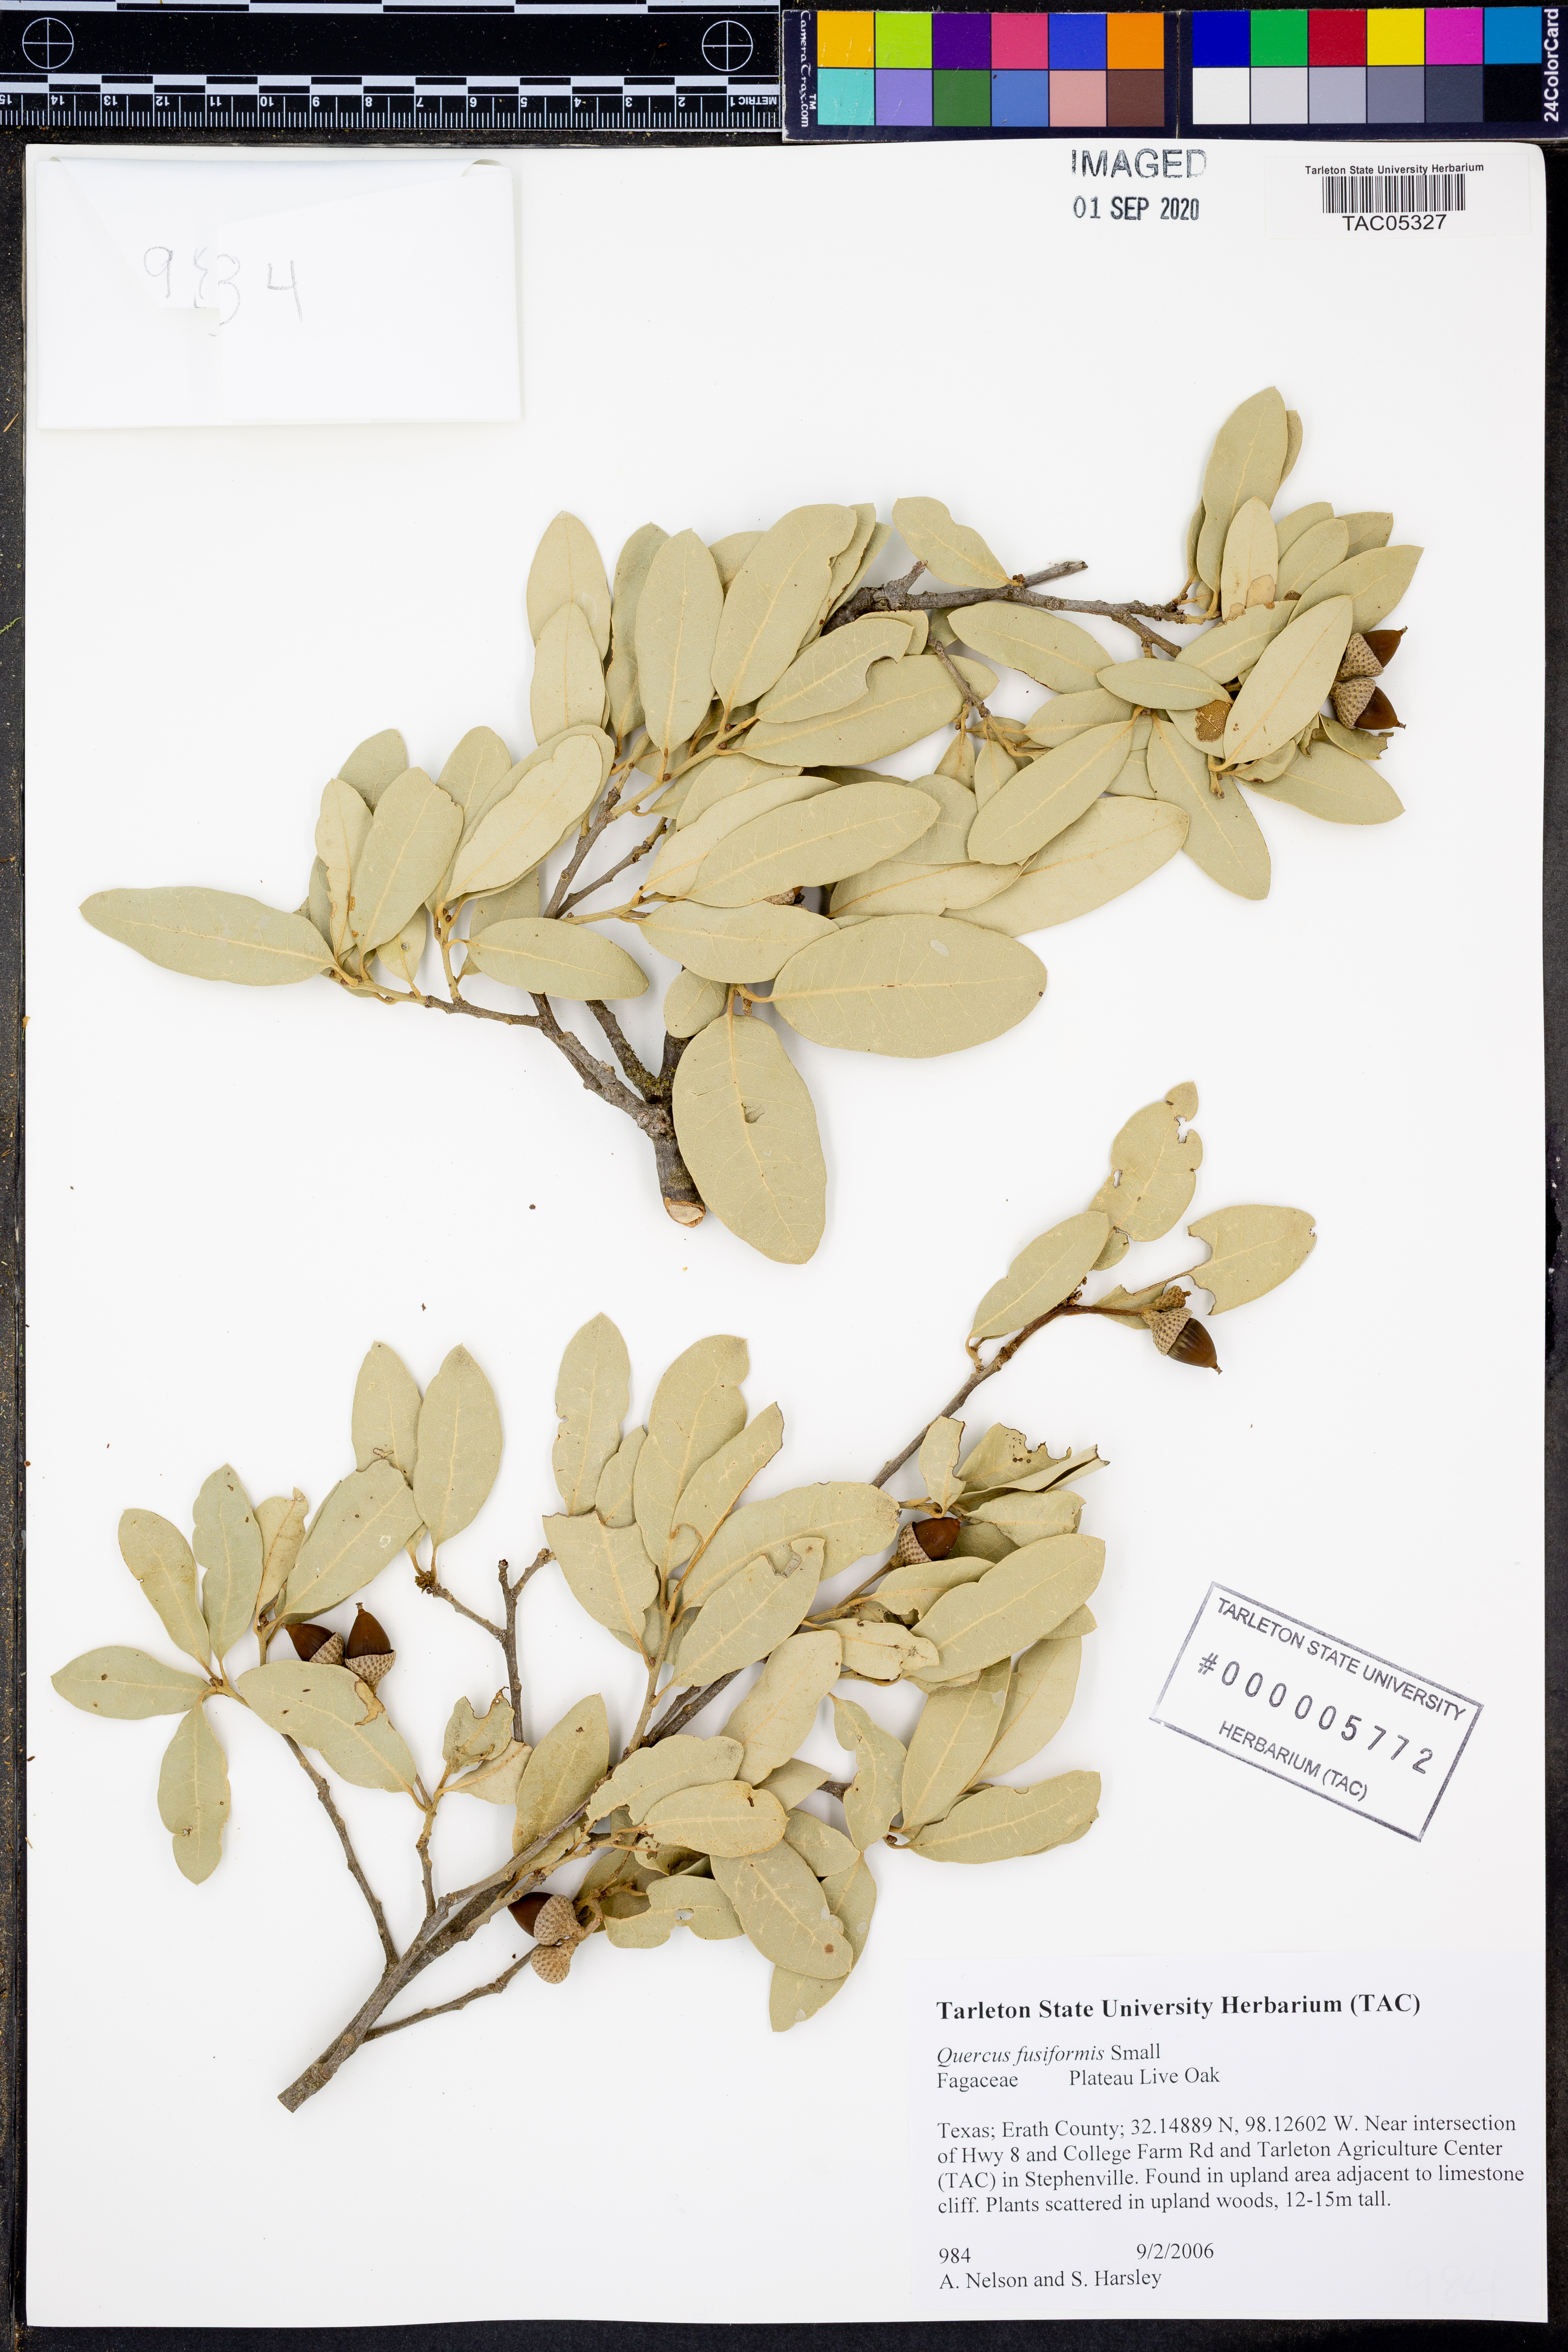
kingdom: Plantae
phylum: Tracheophyta
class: Magnoliopsida
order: Fagales
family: Fagaceae
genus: Quercus
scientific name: Quercus fusiformis
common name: Texas live oak
